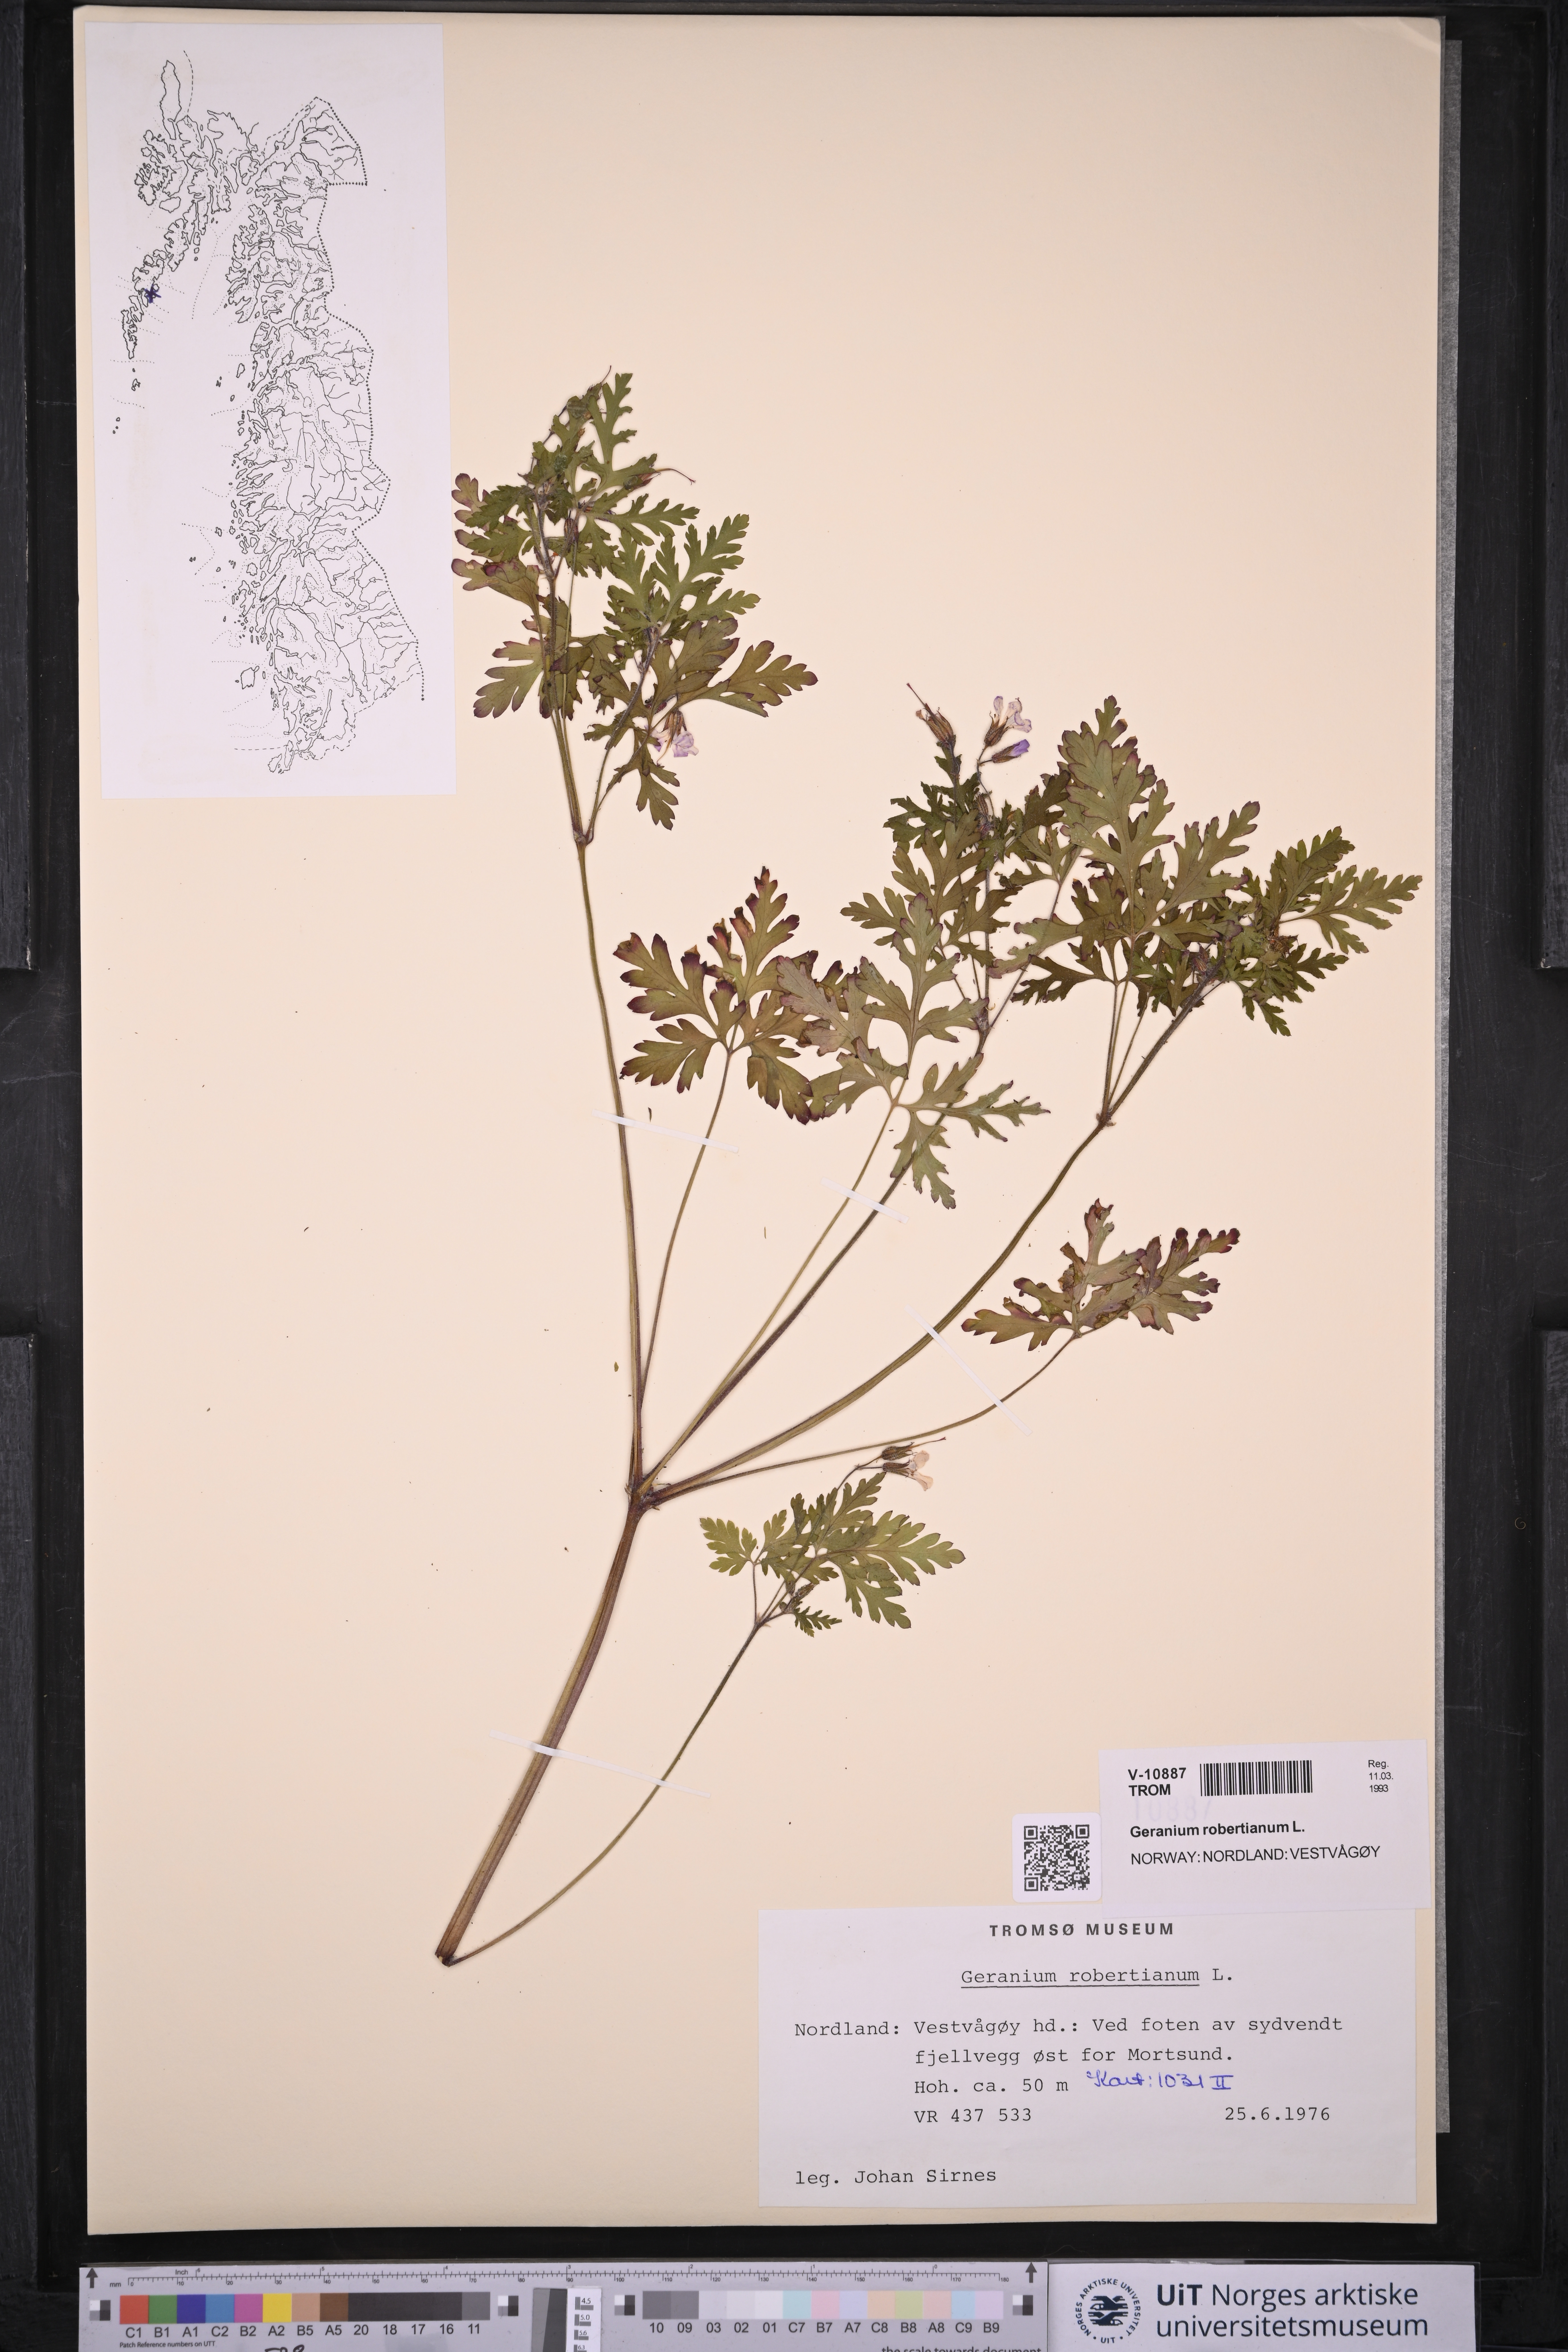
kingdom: Plantae
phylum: Tracheophyta
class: Magnoliopsida
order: Geraniales
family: Geraniaceae
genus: Geranium
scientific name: Geranium robertianum
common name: Herb-robert
